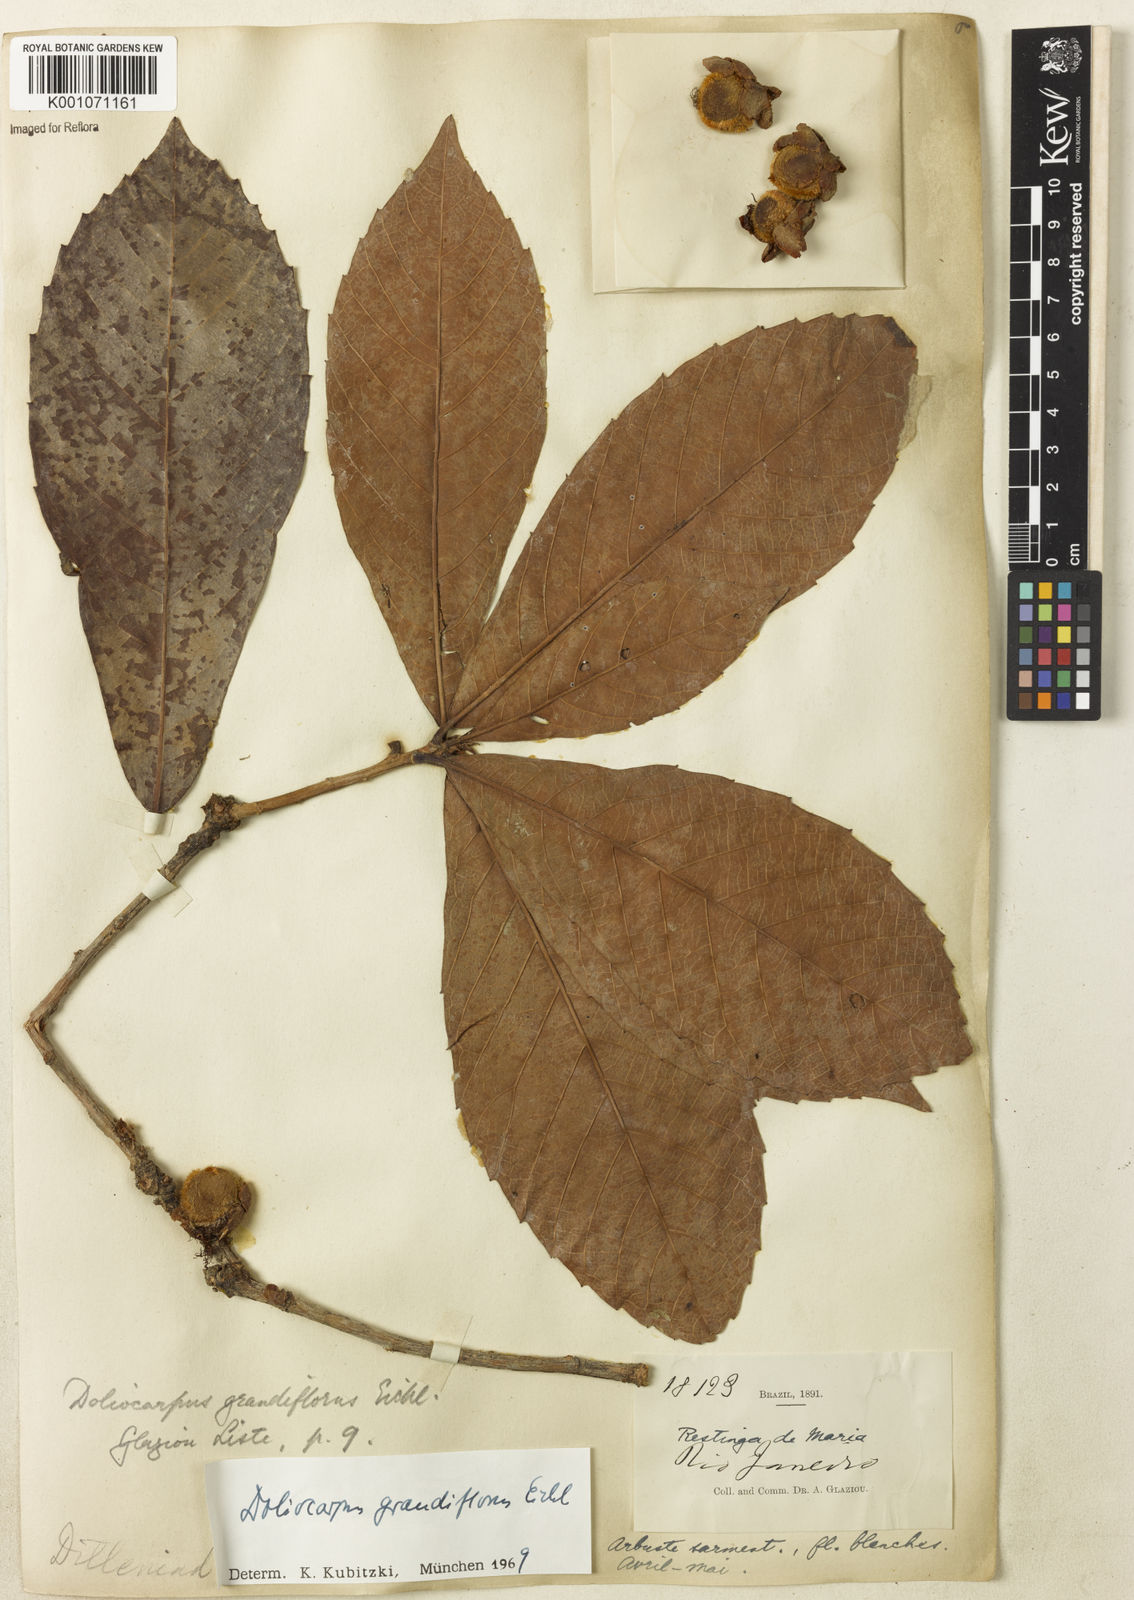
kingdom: Plantae
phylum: Tracheophyta
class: Magnoliopsida
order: Dilleniales
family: Dilleniaceae
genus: Doliocarpus
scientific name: Doliocarpus grandiflorus
